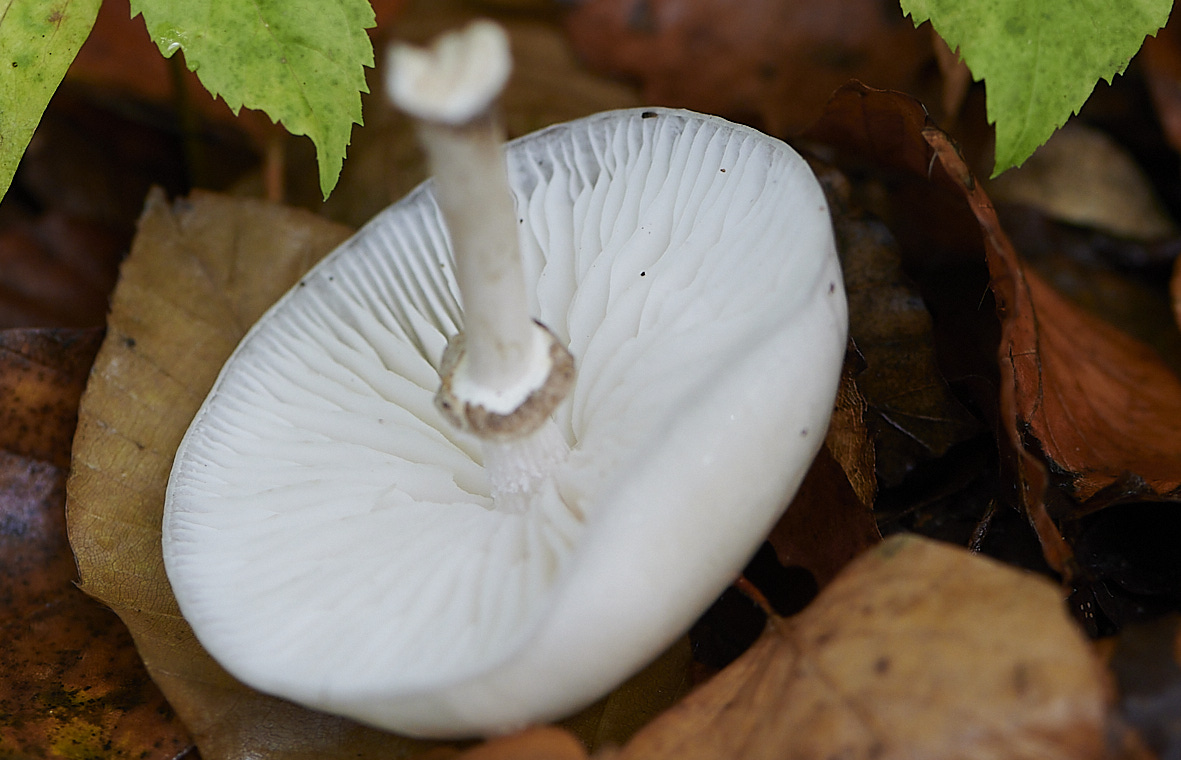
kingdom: Fungi
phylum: Basidiomycota
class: Agaricomycetes
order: Agaricales
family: Physalacriaceae
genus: Mucidula
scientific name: Mucidula mucida
